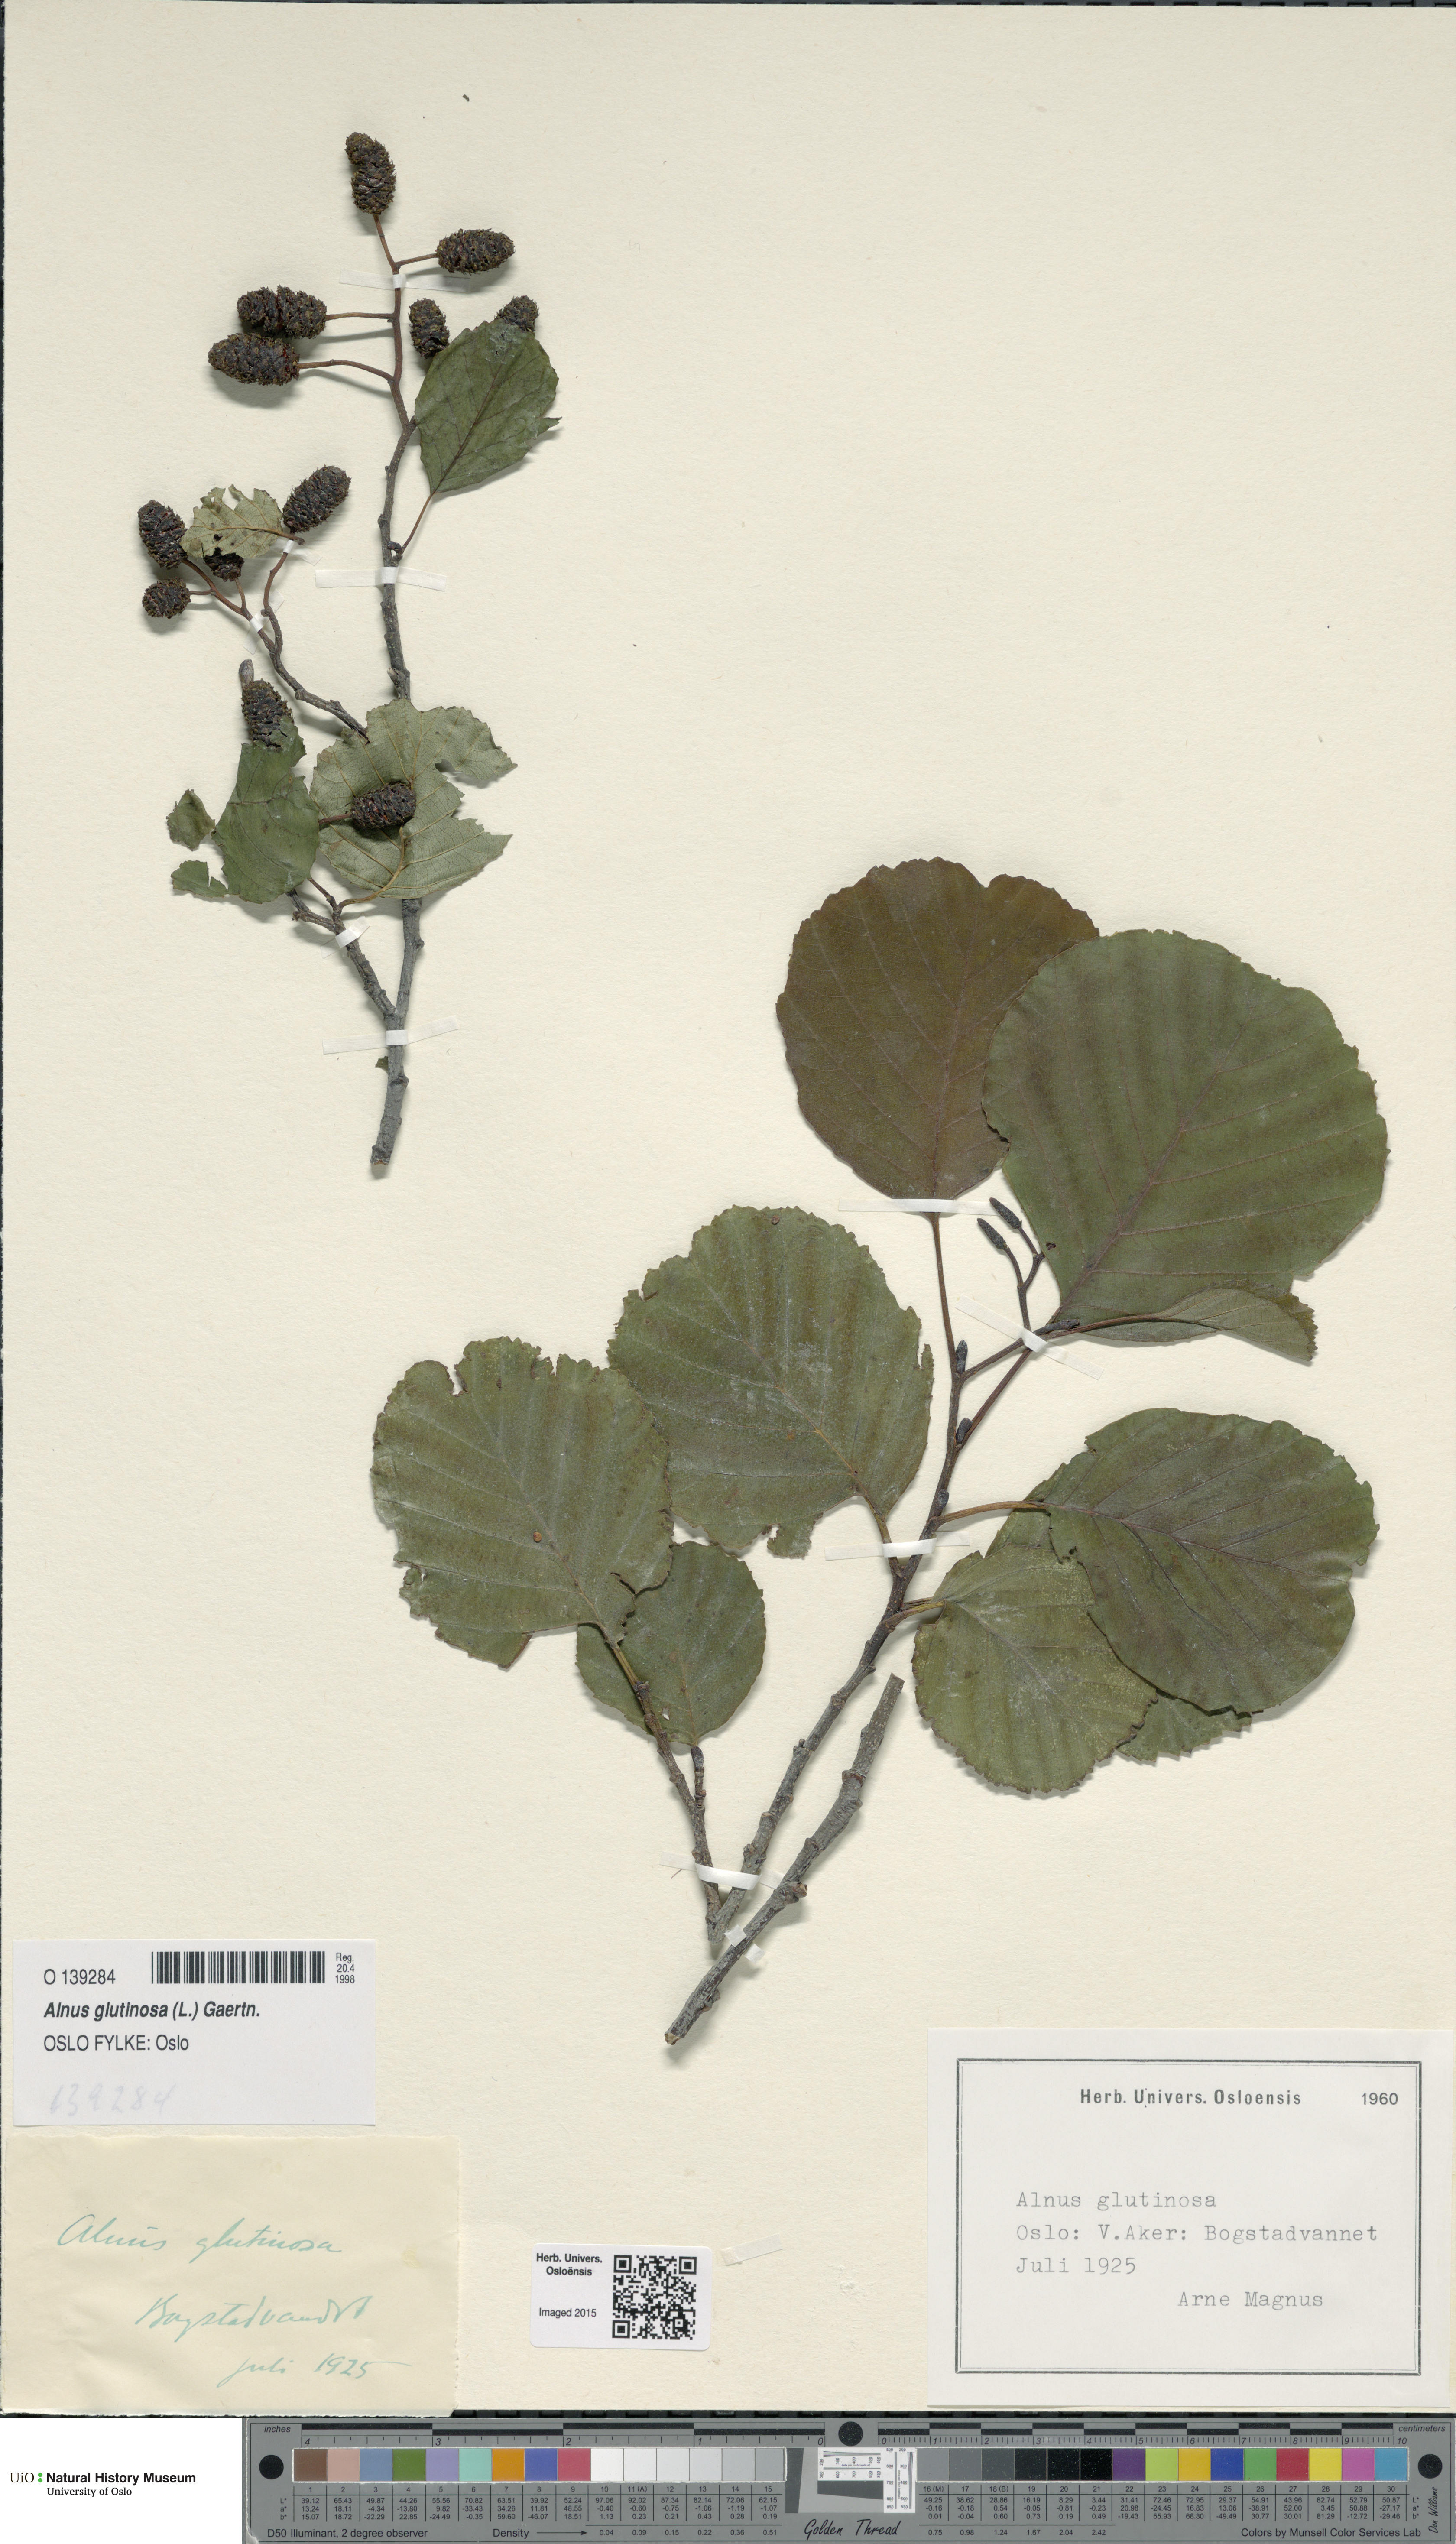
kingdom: Plantae
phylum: Tracheophyta
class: Magnoliopsida
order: Fagales
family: Betulaceae
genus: Alnus
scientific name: Alnus glutinosa
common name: Black alder
